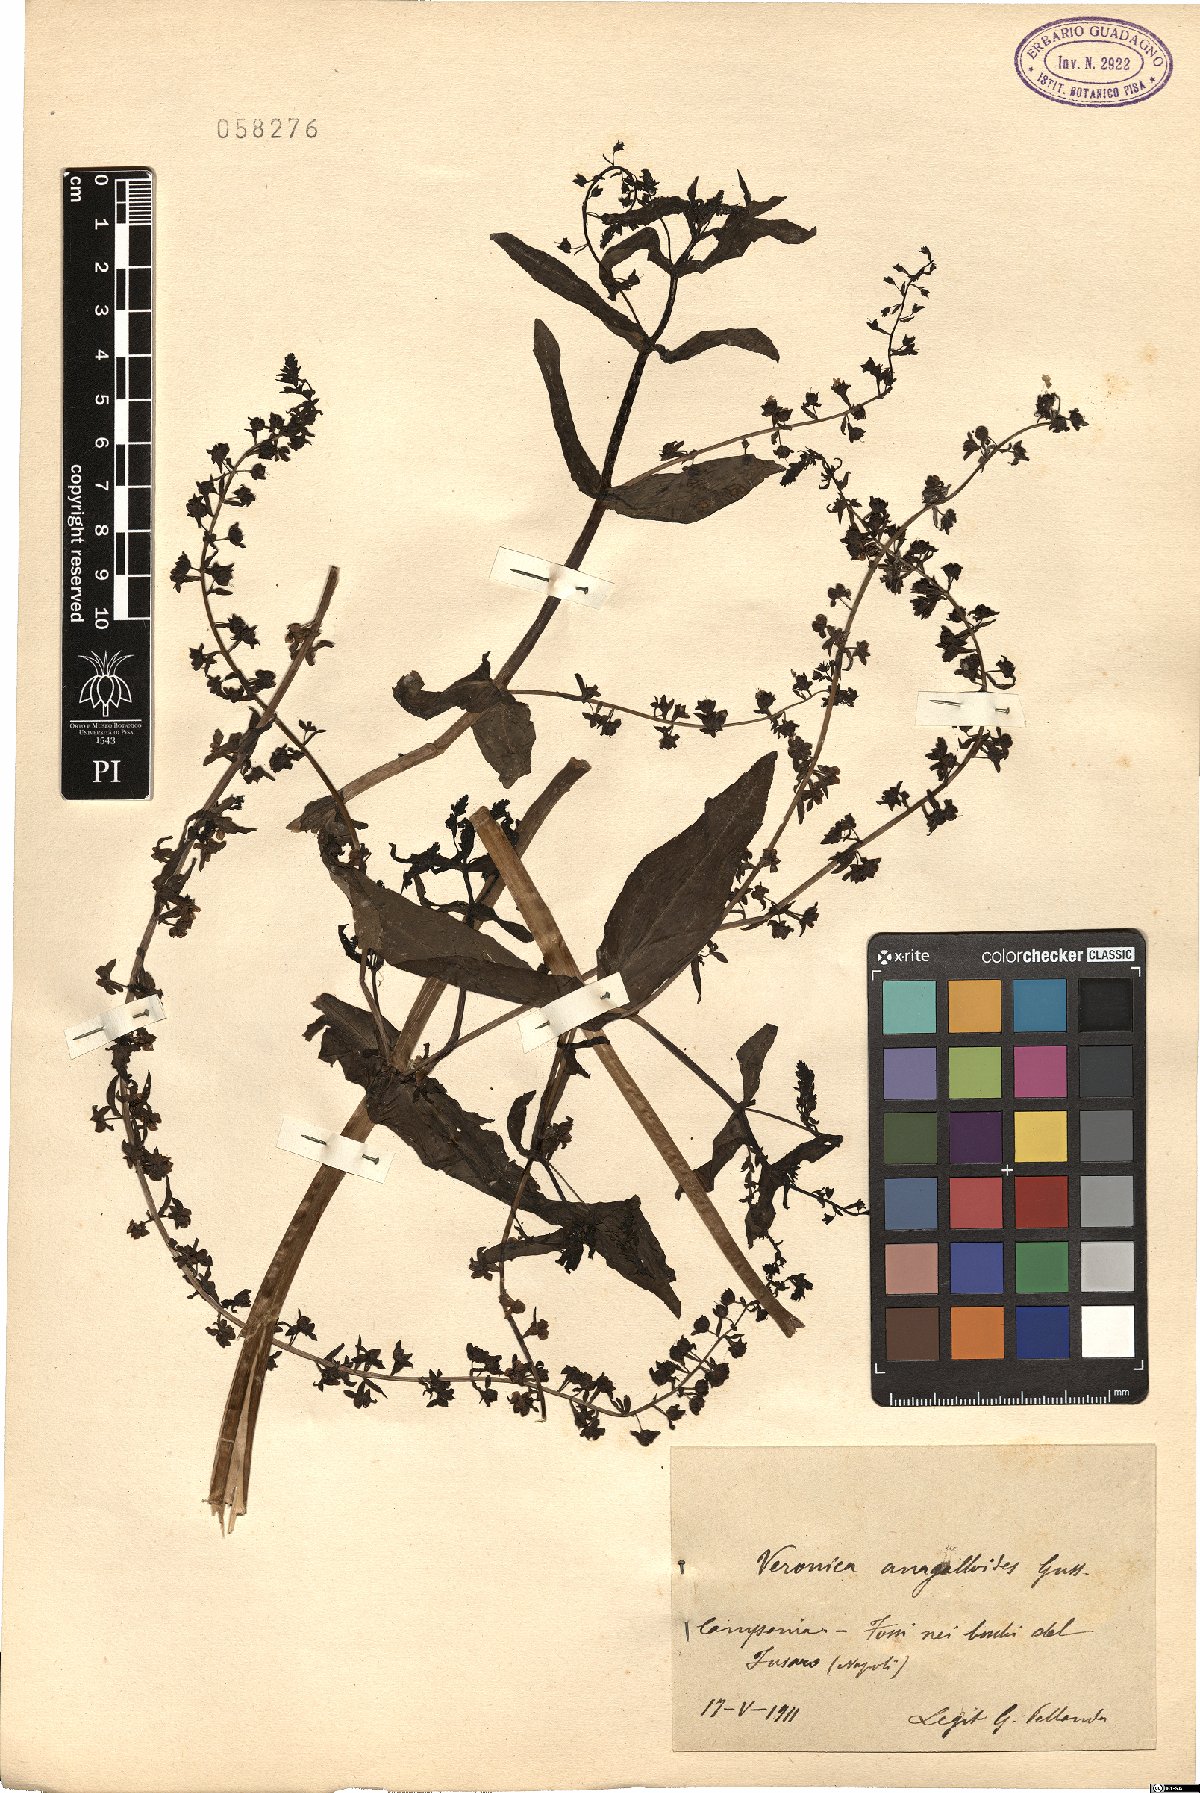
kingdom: Plantae
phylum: Tracheophyta
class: Magnoliopsida
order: Lamiales
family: Plantaginaceae
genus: Veronica
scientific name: Veronica anagalloides
